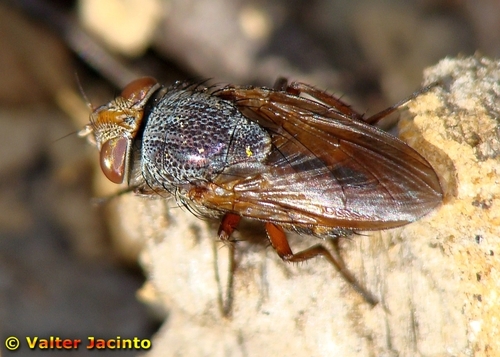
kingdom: Animalia
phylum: Arthropoda
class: Insecta
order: Diptera
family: Calliphoridae
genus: Rhyncomya
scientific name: Rhyncomya columbina
